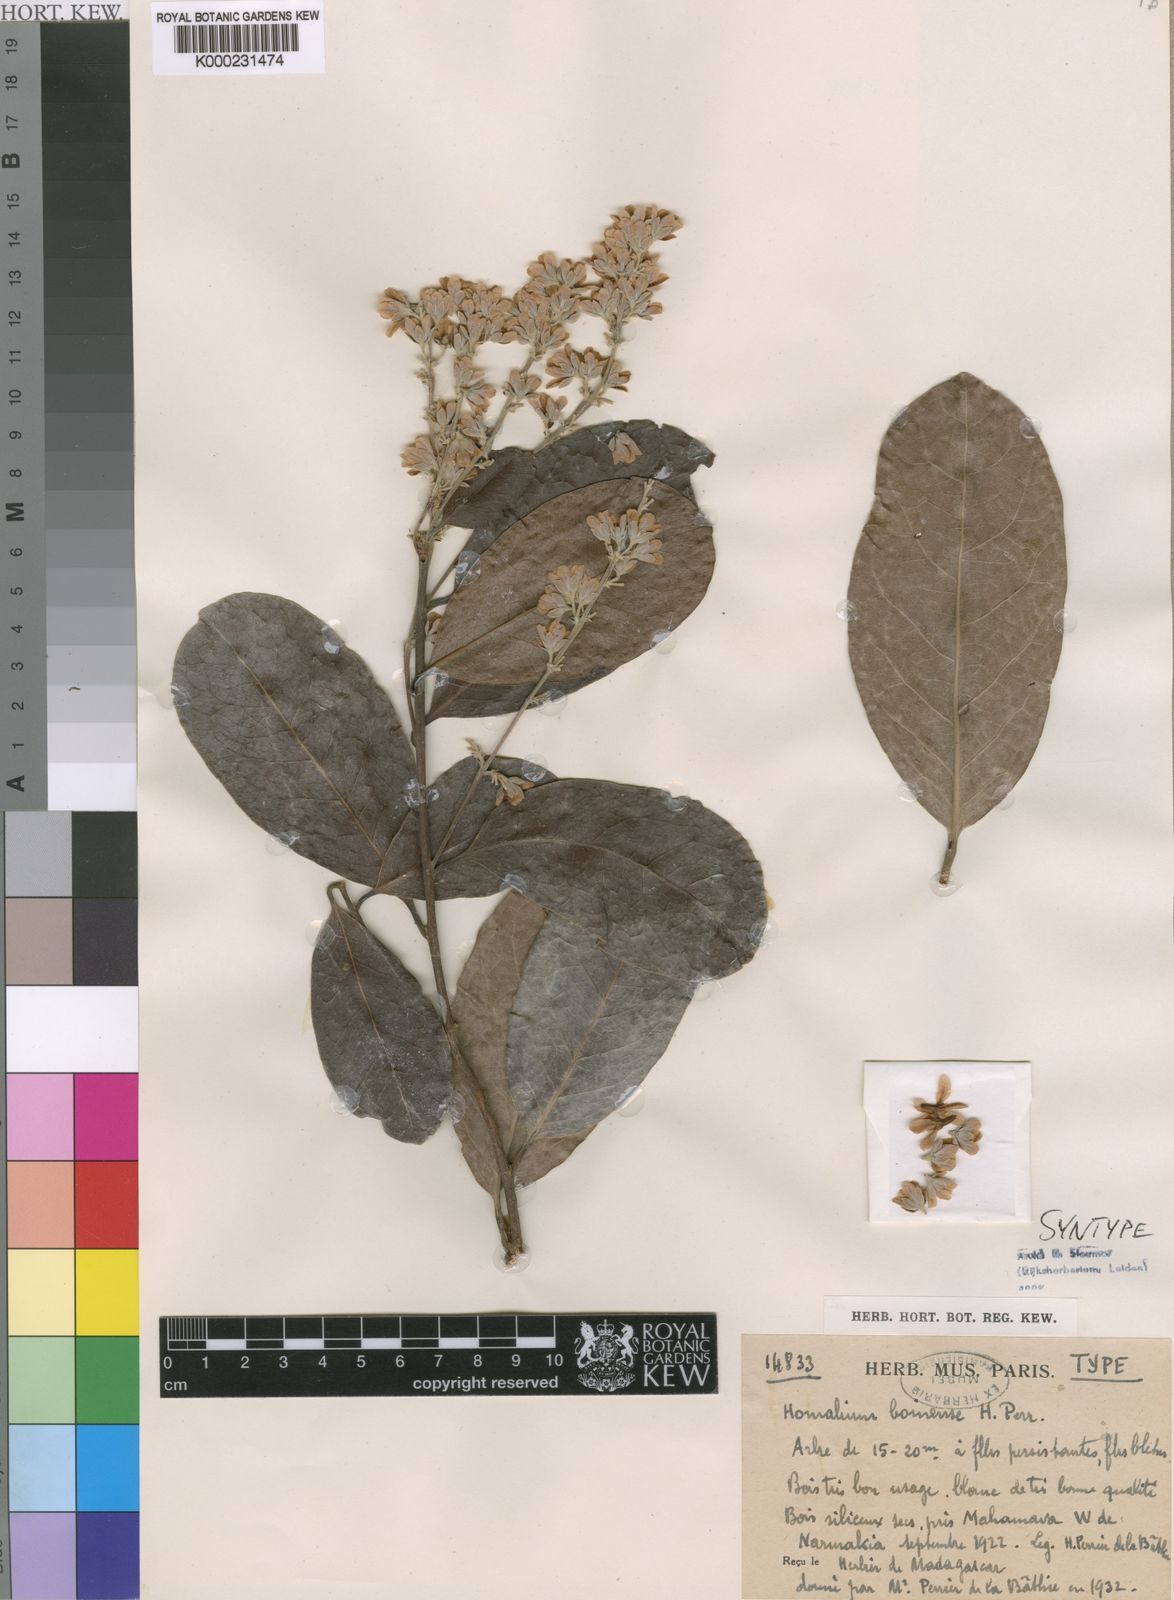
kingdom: Plantae
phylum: Tracheophyta
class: Magnoliopsida
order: Malpighiales
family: Salicaceae
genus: Homalium
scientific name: Homalium boinense
